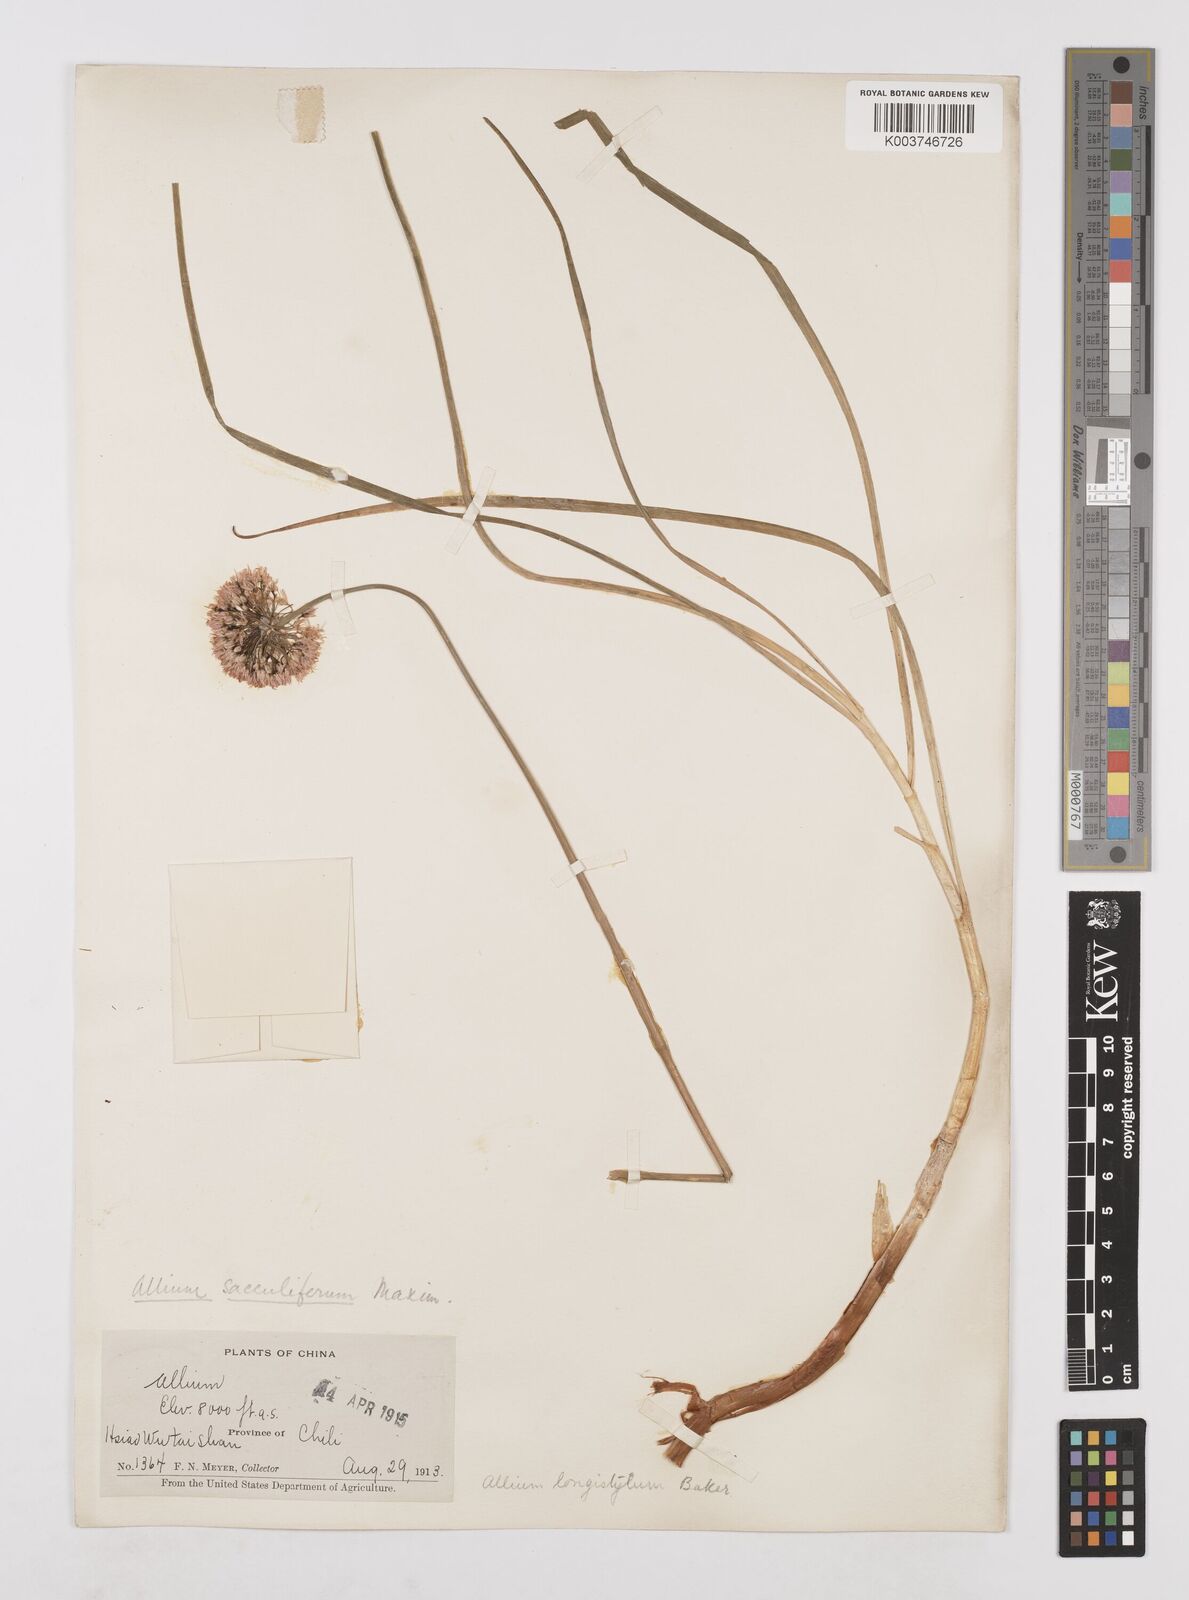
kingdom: Plantae
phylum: Tracheophyta
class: Liliopsida
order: Asparagales
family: Amaryllidaceae
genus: Allium
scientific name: Allium longistylum
